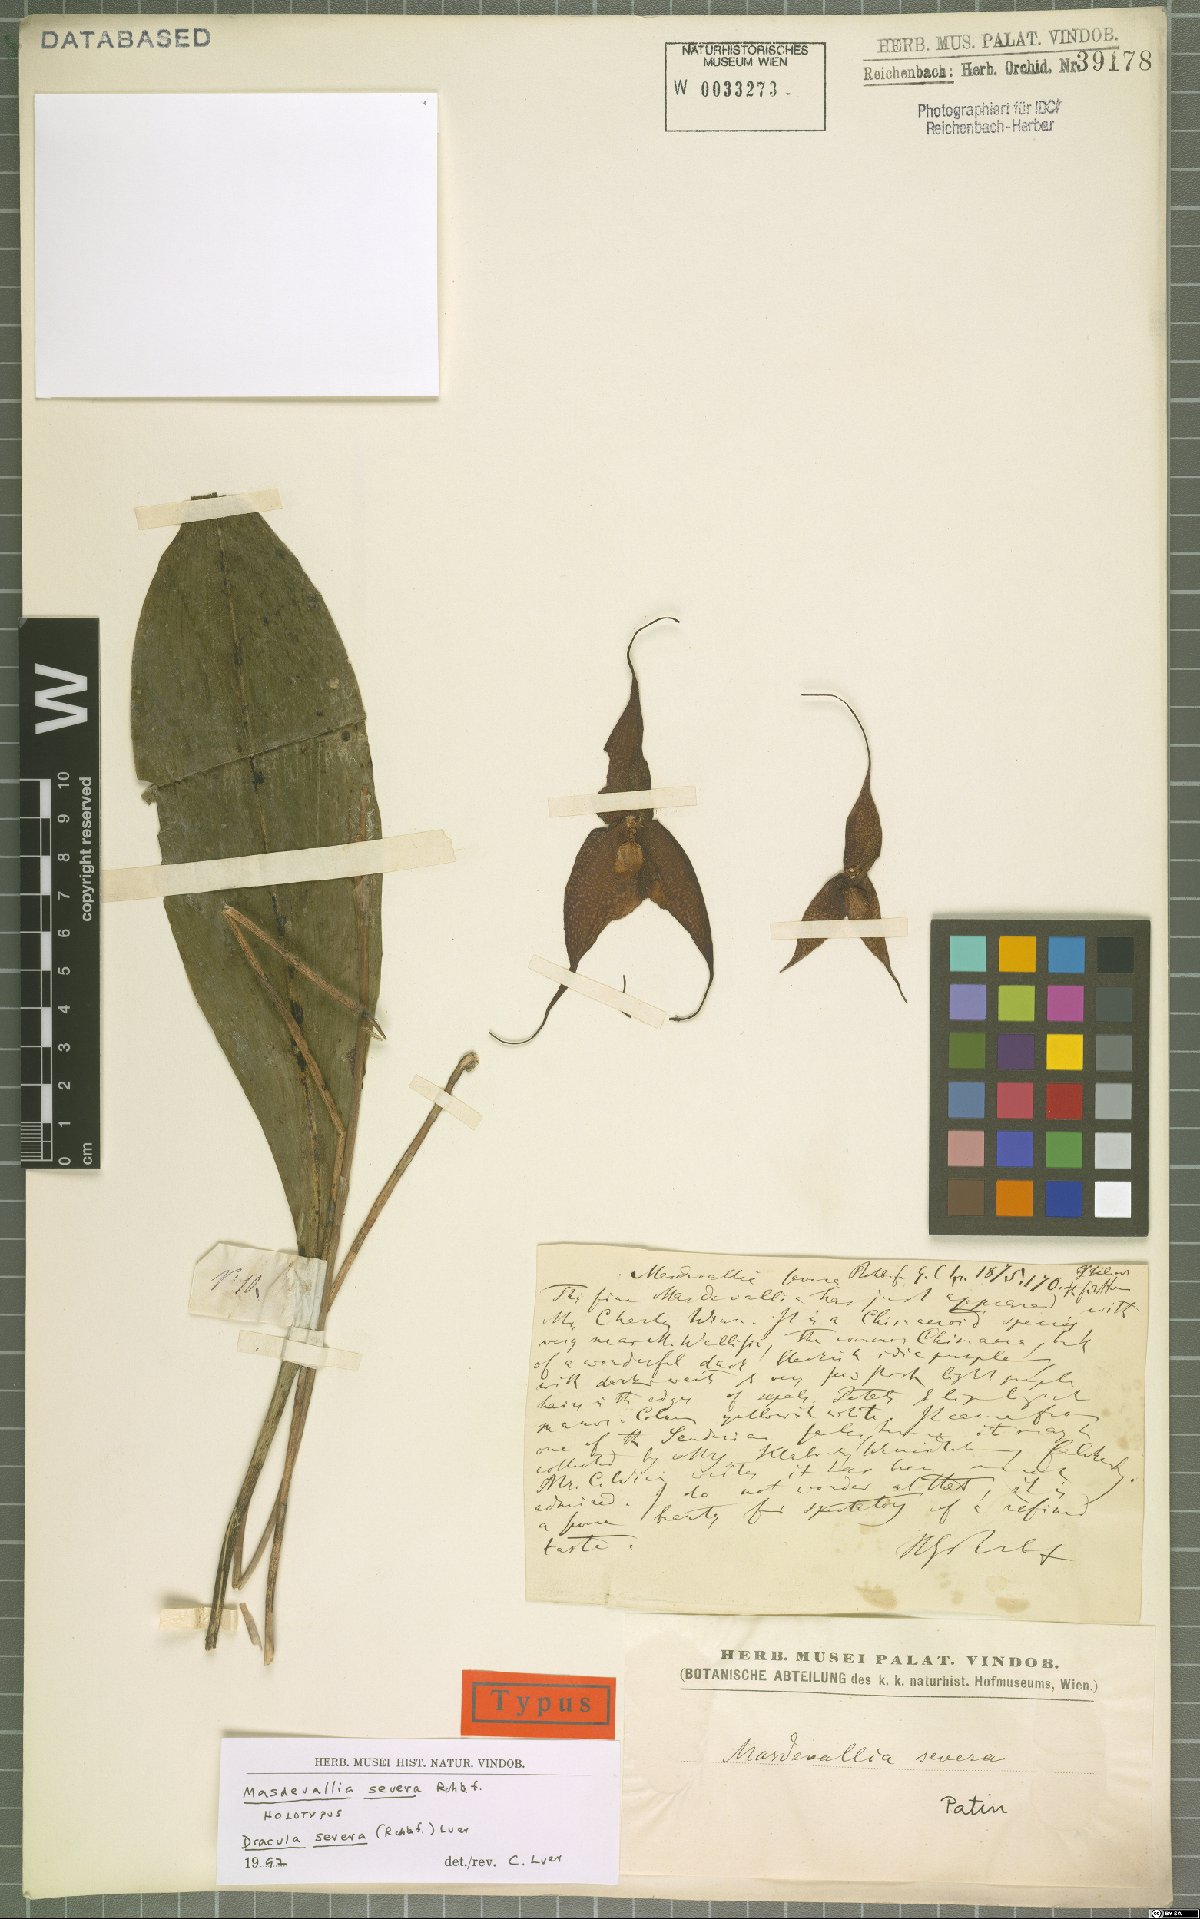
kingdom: Plantae
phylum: Tracheophyta
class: Liliopsida
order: Asparagales
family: Orchidaceae
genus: Dracula
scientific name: Dracula severa
